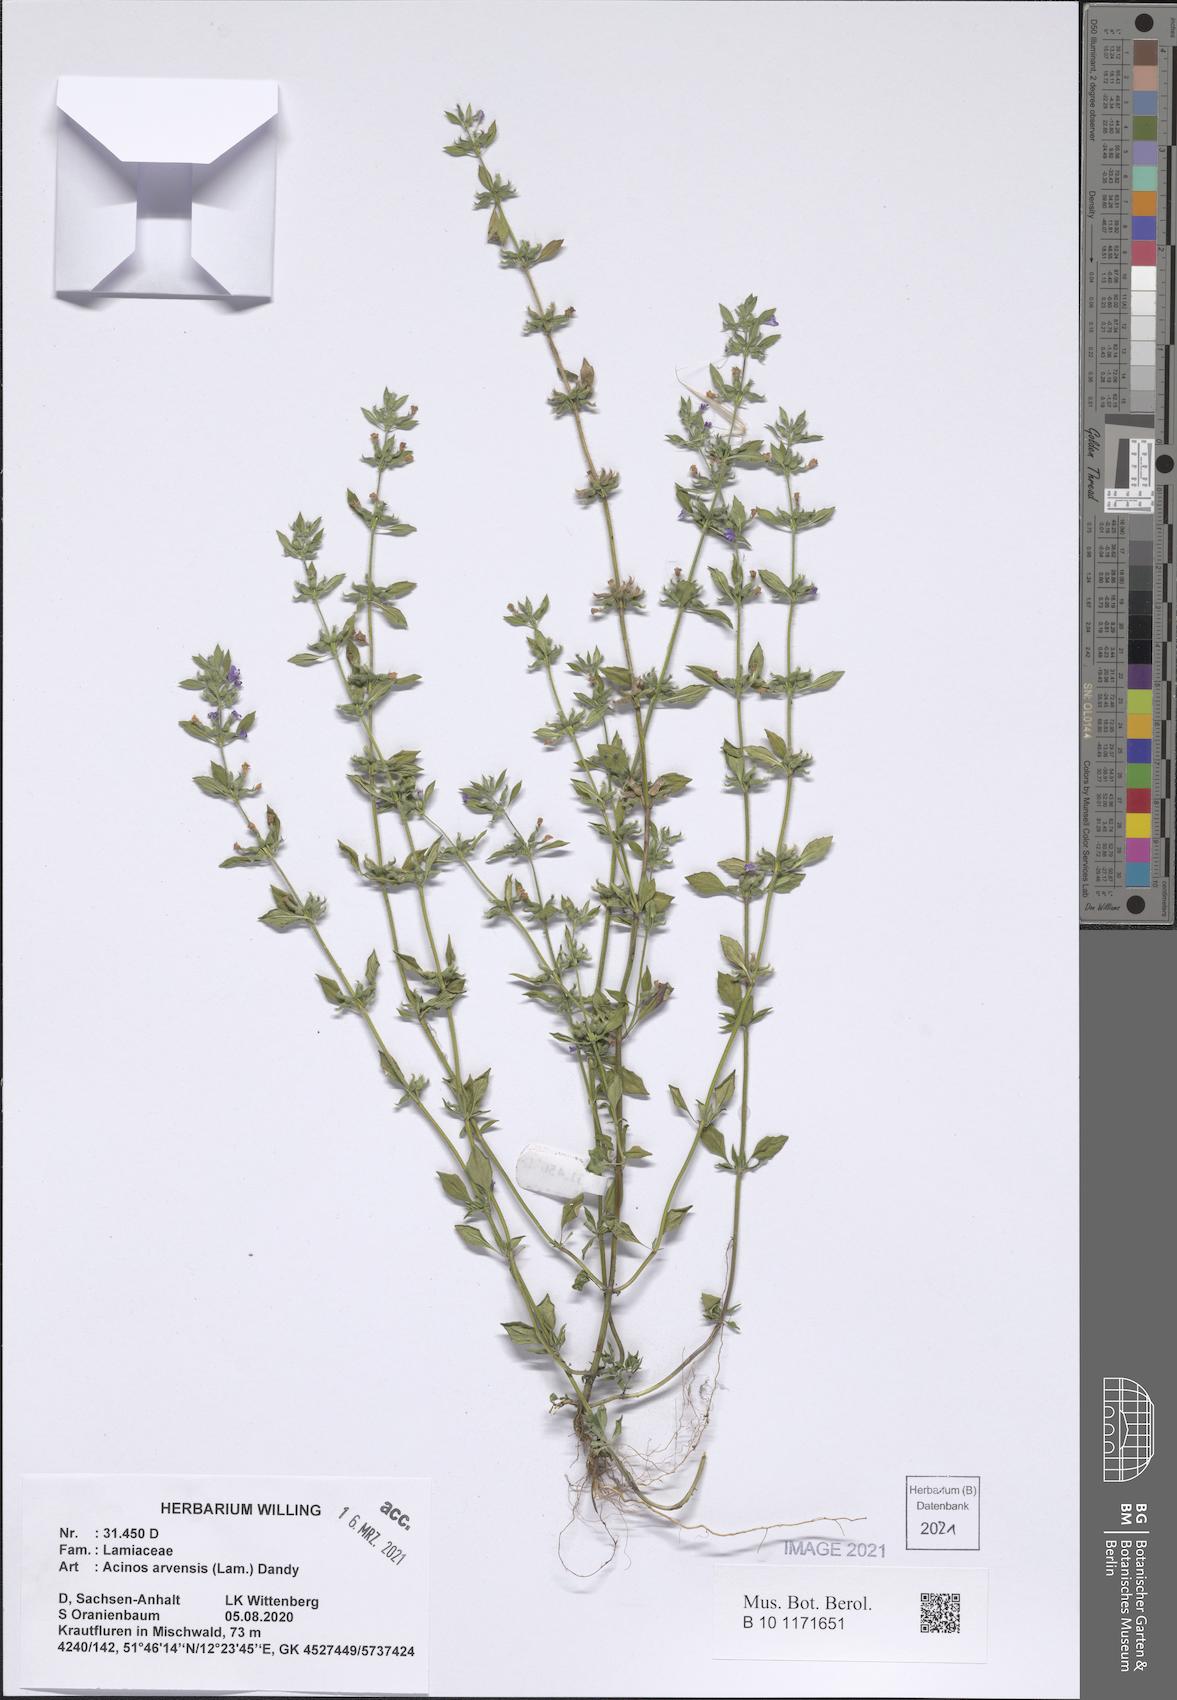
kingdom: Plantae
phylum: Tracheophyta
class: Magnoliopsida
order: Lamiales
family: Lamiaceae
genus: Clinopodium
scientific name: Clinopodium acinos
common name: Basil thyme
